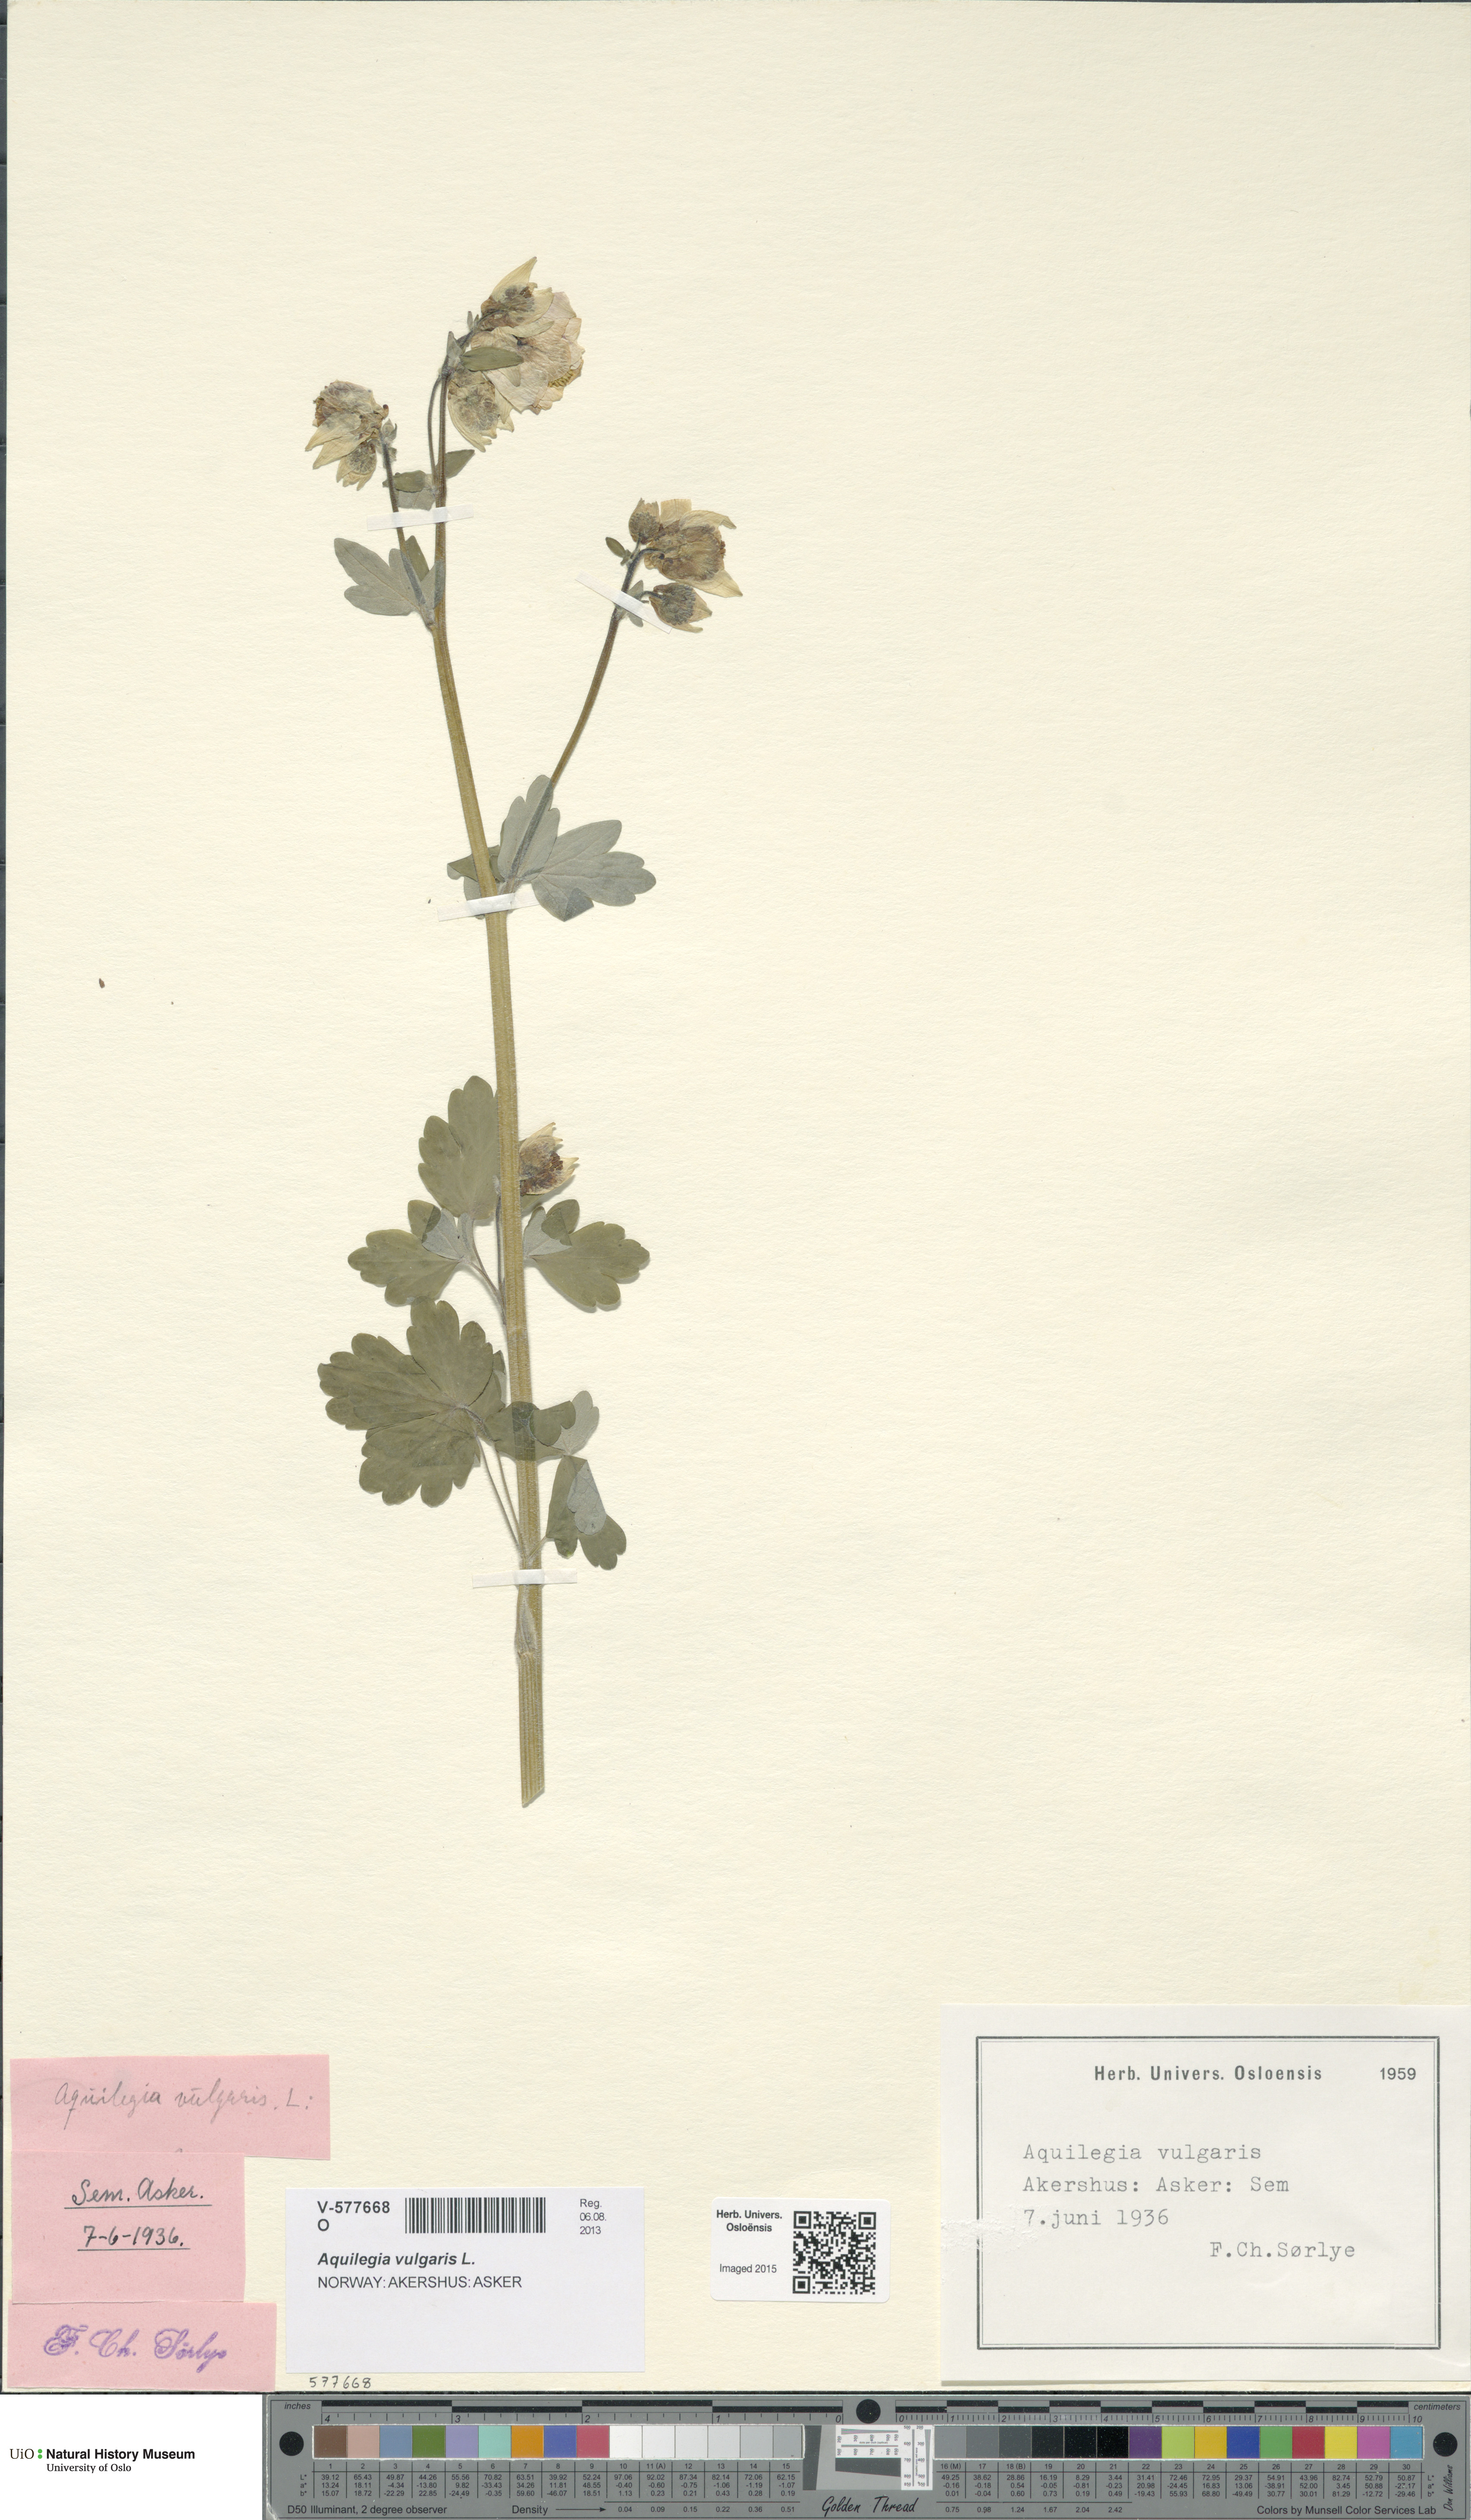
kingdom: Plantae
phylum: Tracheophyta
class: Magnoliopsida
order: Ranunculales
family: Ranunculaceae
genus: Aquilegia
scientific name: Aquilegia vulgaris
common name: Columbine
